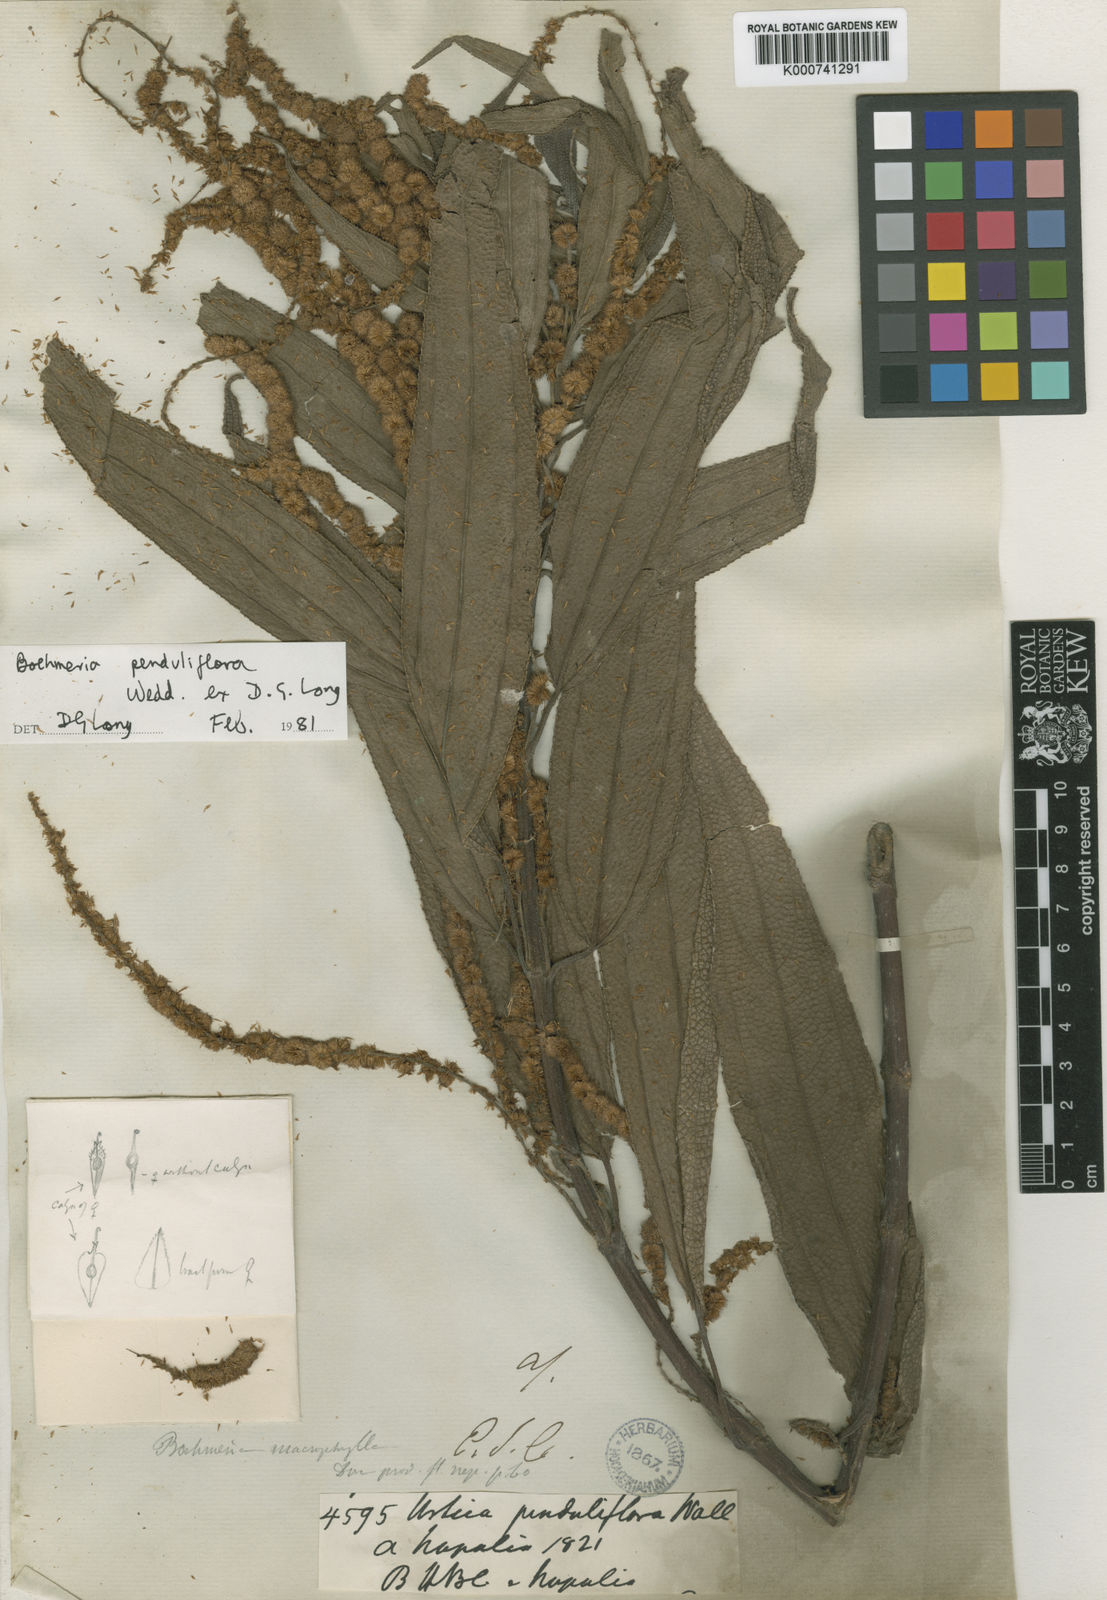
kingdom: Plantae
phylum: Tracheophyta
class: Magnoliopsida
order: Rosales
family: Urticaceae
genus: Boehmeria
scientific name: Boehmeria penduliflora
